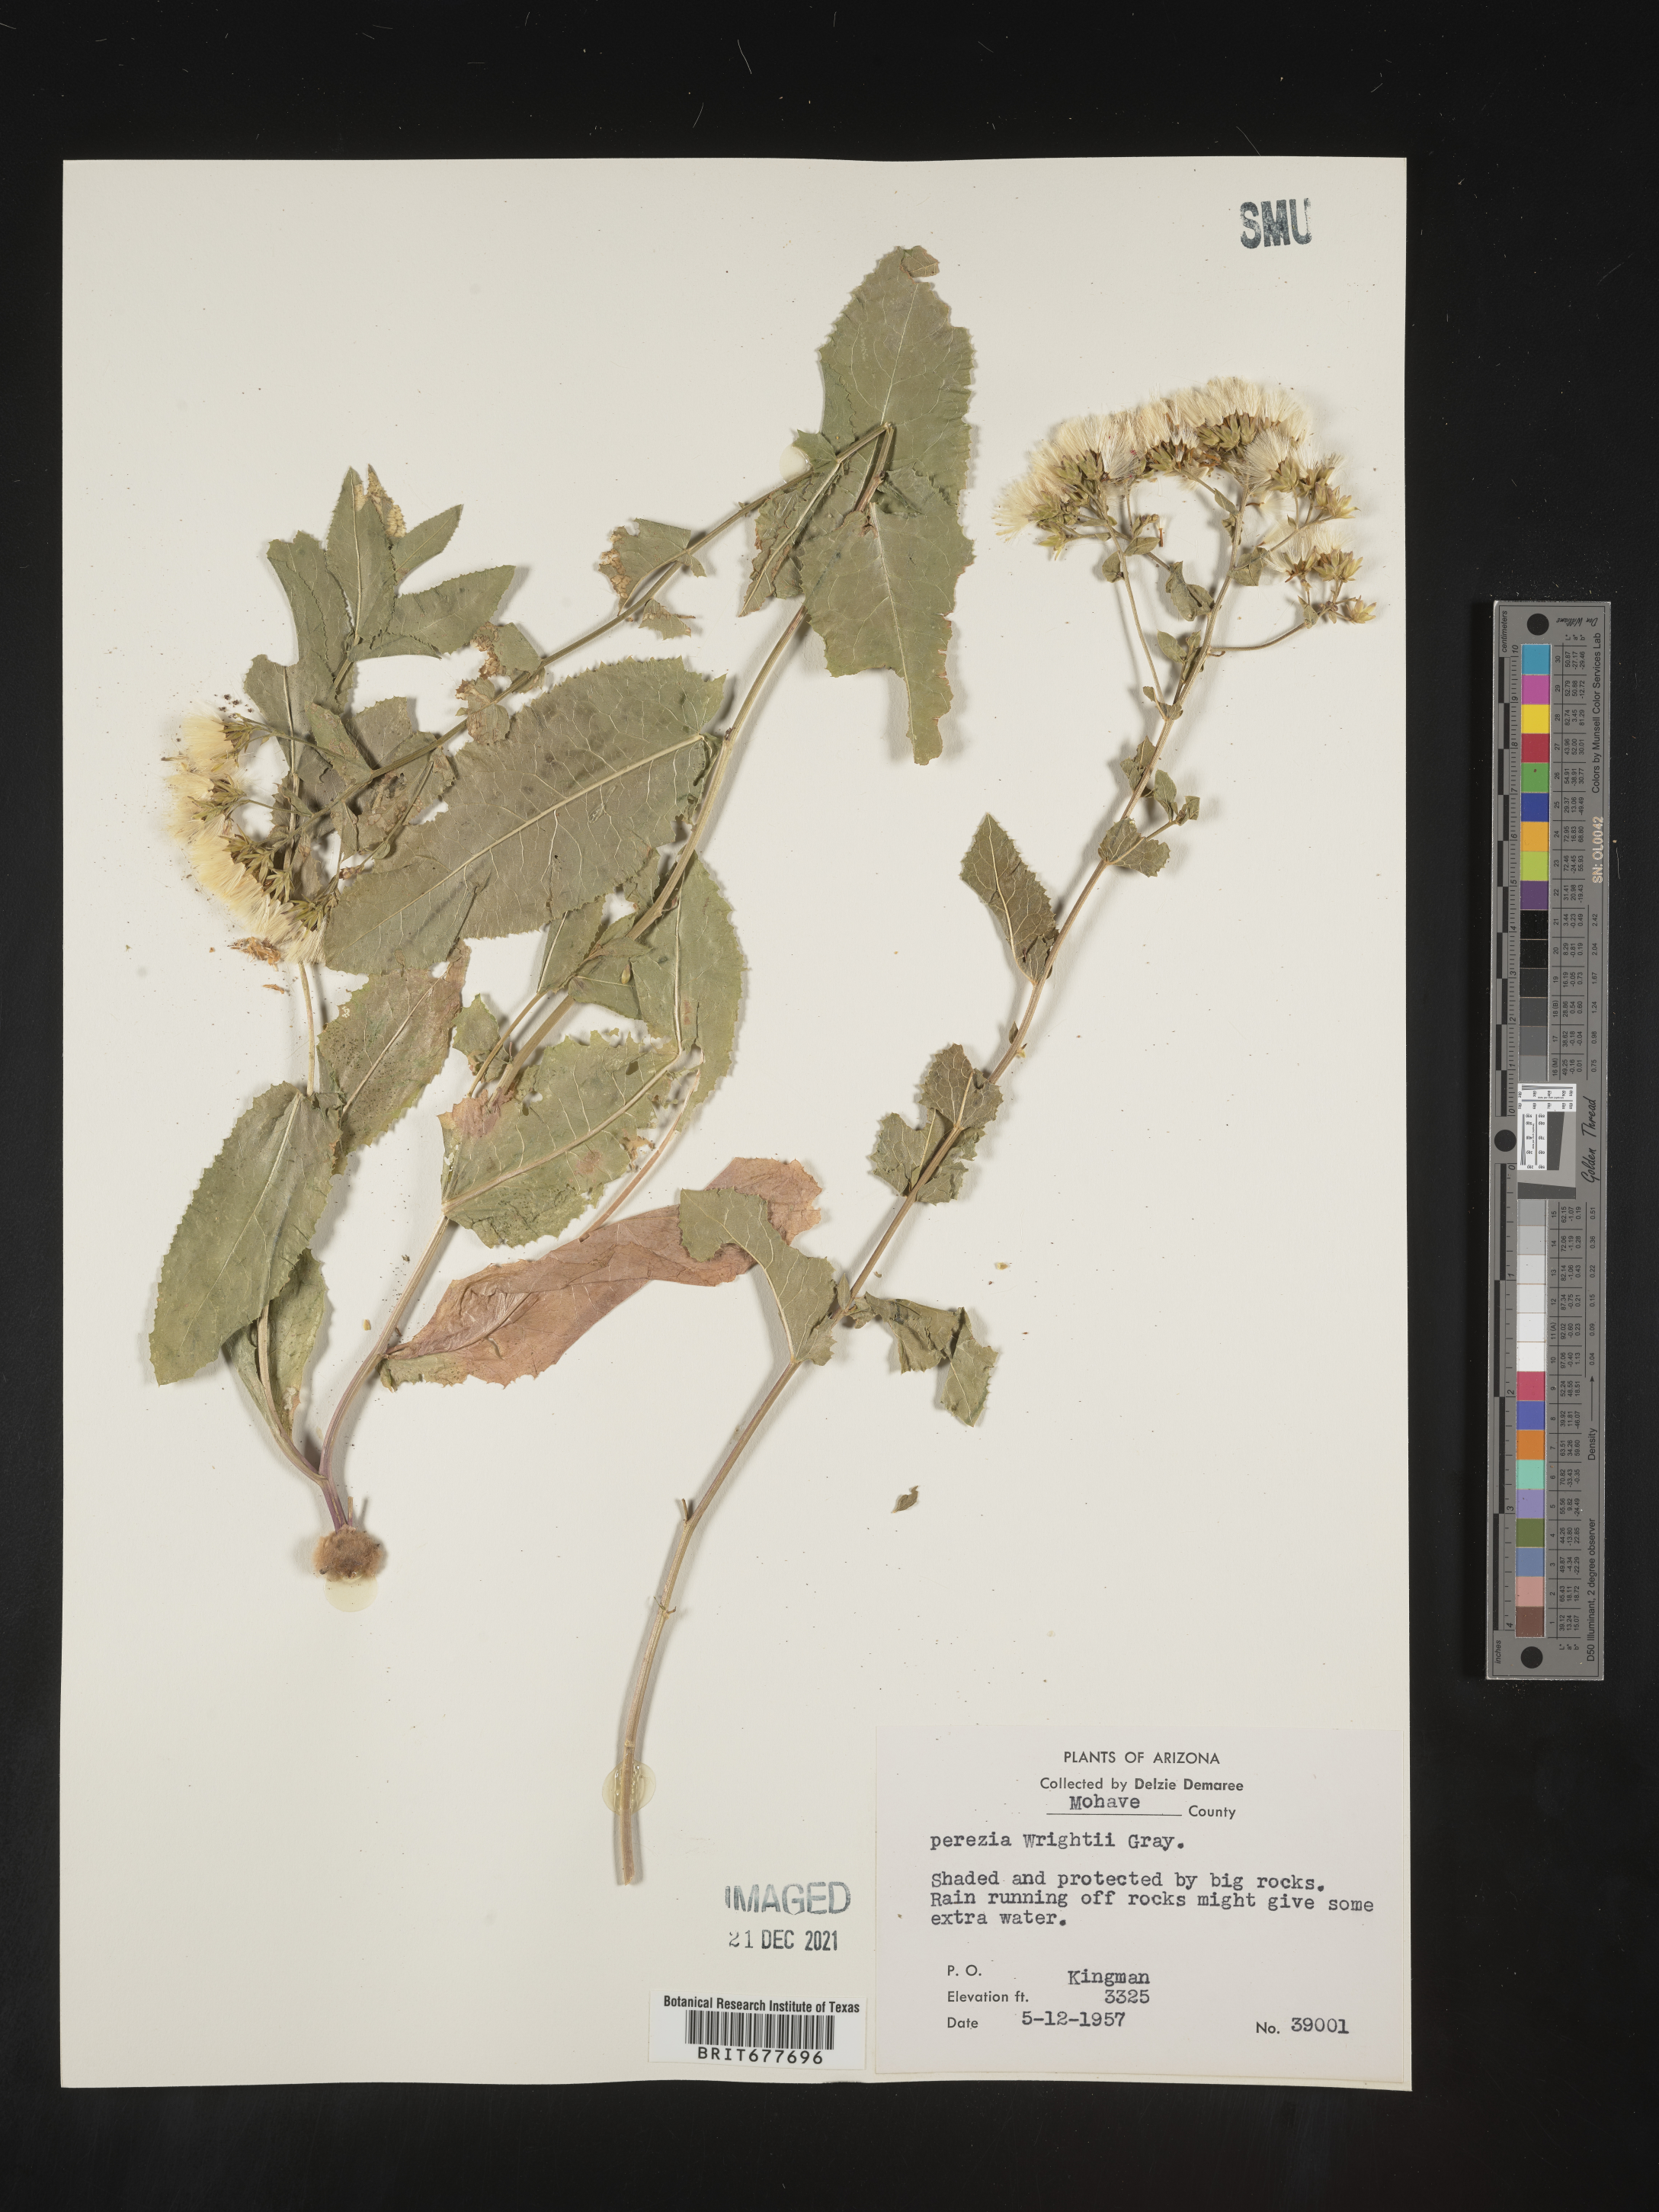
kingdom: Plantae
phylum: Tracheophyta
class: Magnoliopsida
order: Asterales
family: Asteraceae
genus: Perezia
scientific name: Perezia
